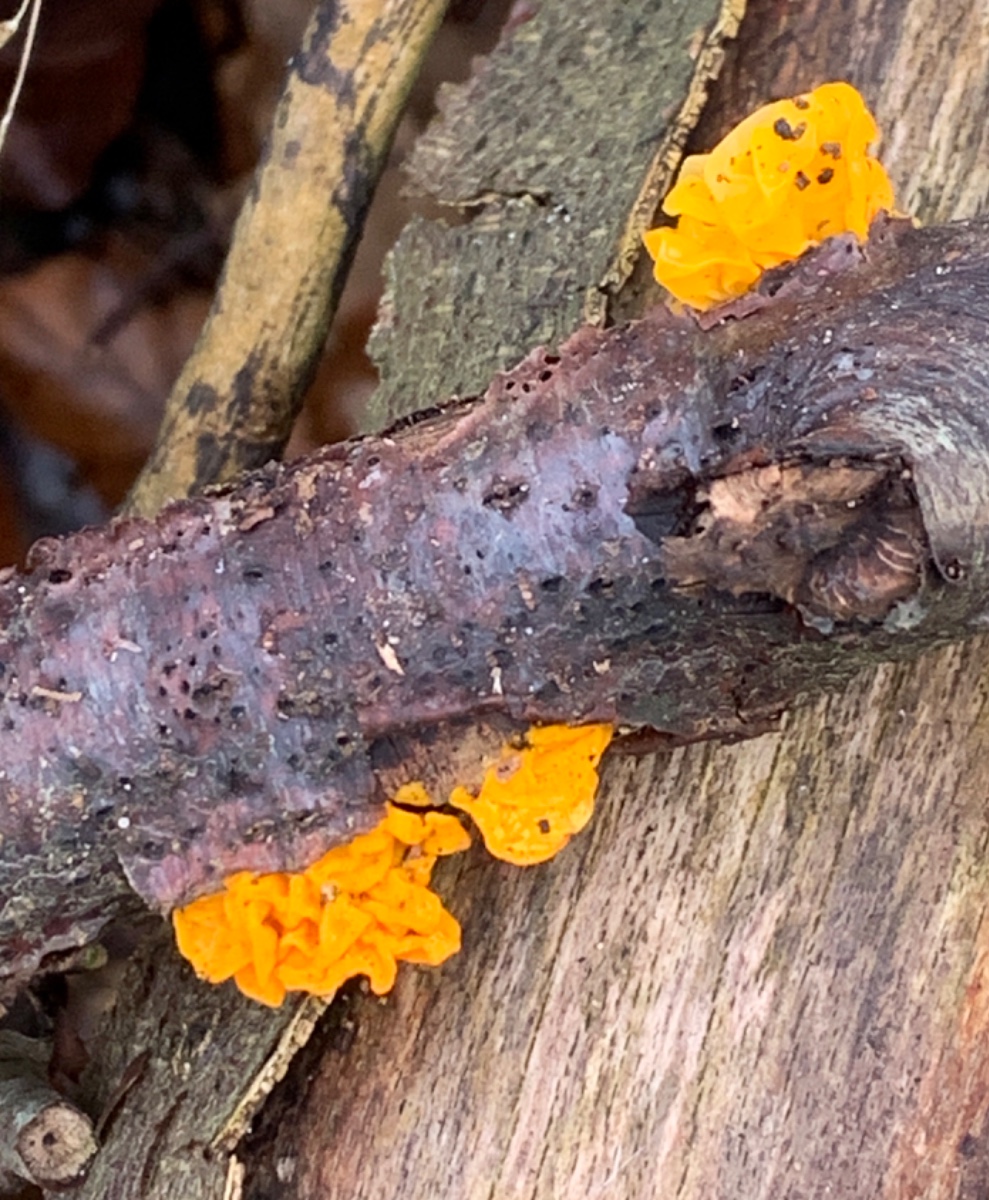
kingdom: Fungi
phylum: Basidiomycota
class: Tremellomycetes
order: Tremellales
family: Tremellaceae
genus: Tremella
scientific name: Tremella mesenterica
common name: gul bævresvamp
